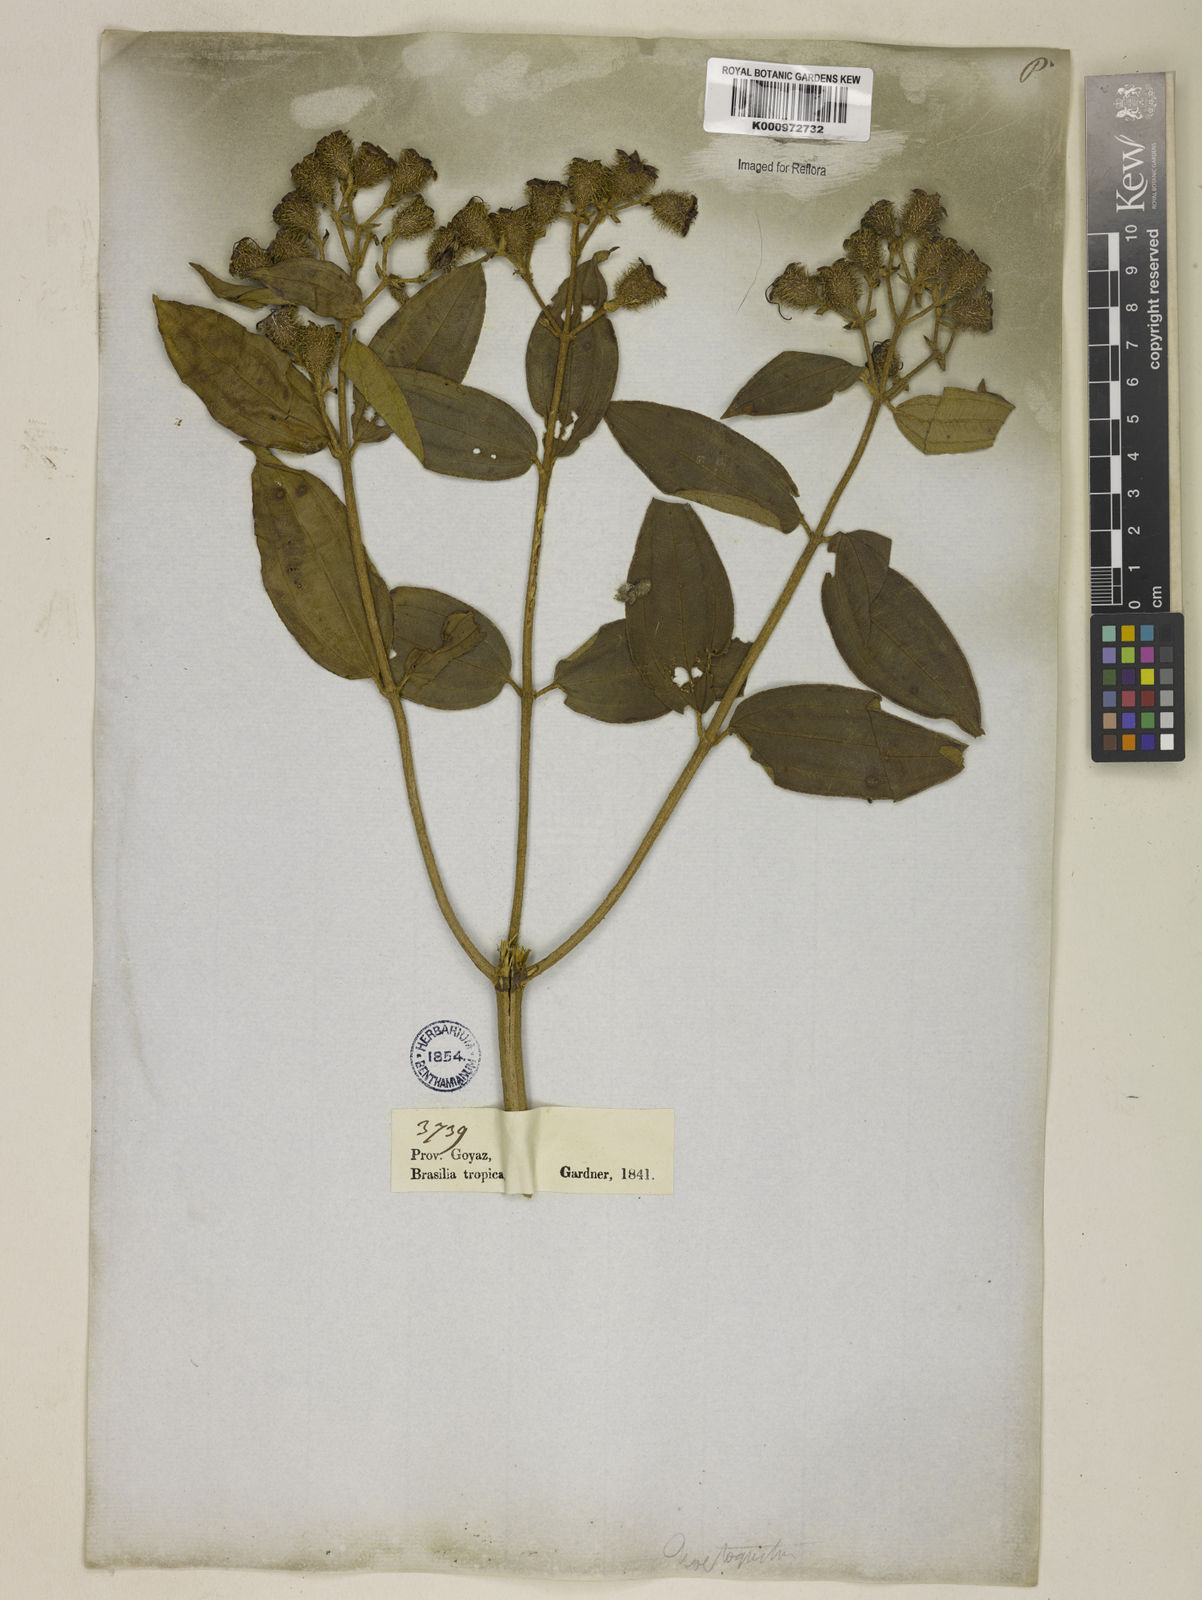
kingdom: Plantae
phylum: Tracheophyta
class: Magnoliopsida
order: Myrtales
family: Melastomataceae
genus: Tibouchina
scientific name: Tibouchina exasperata
